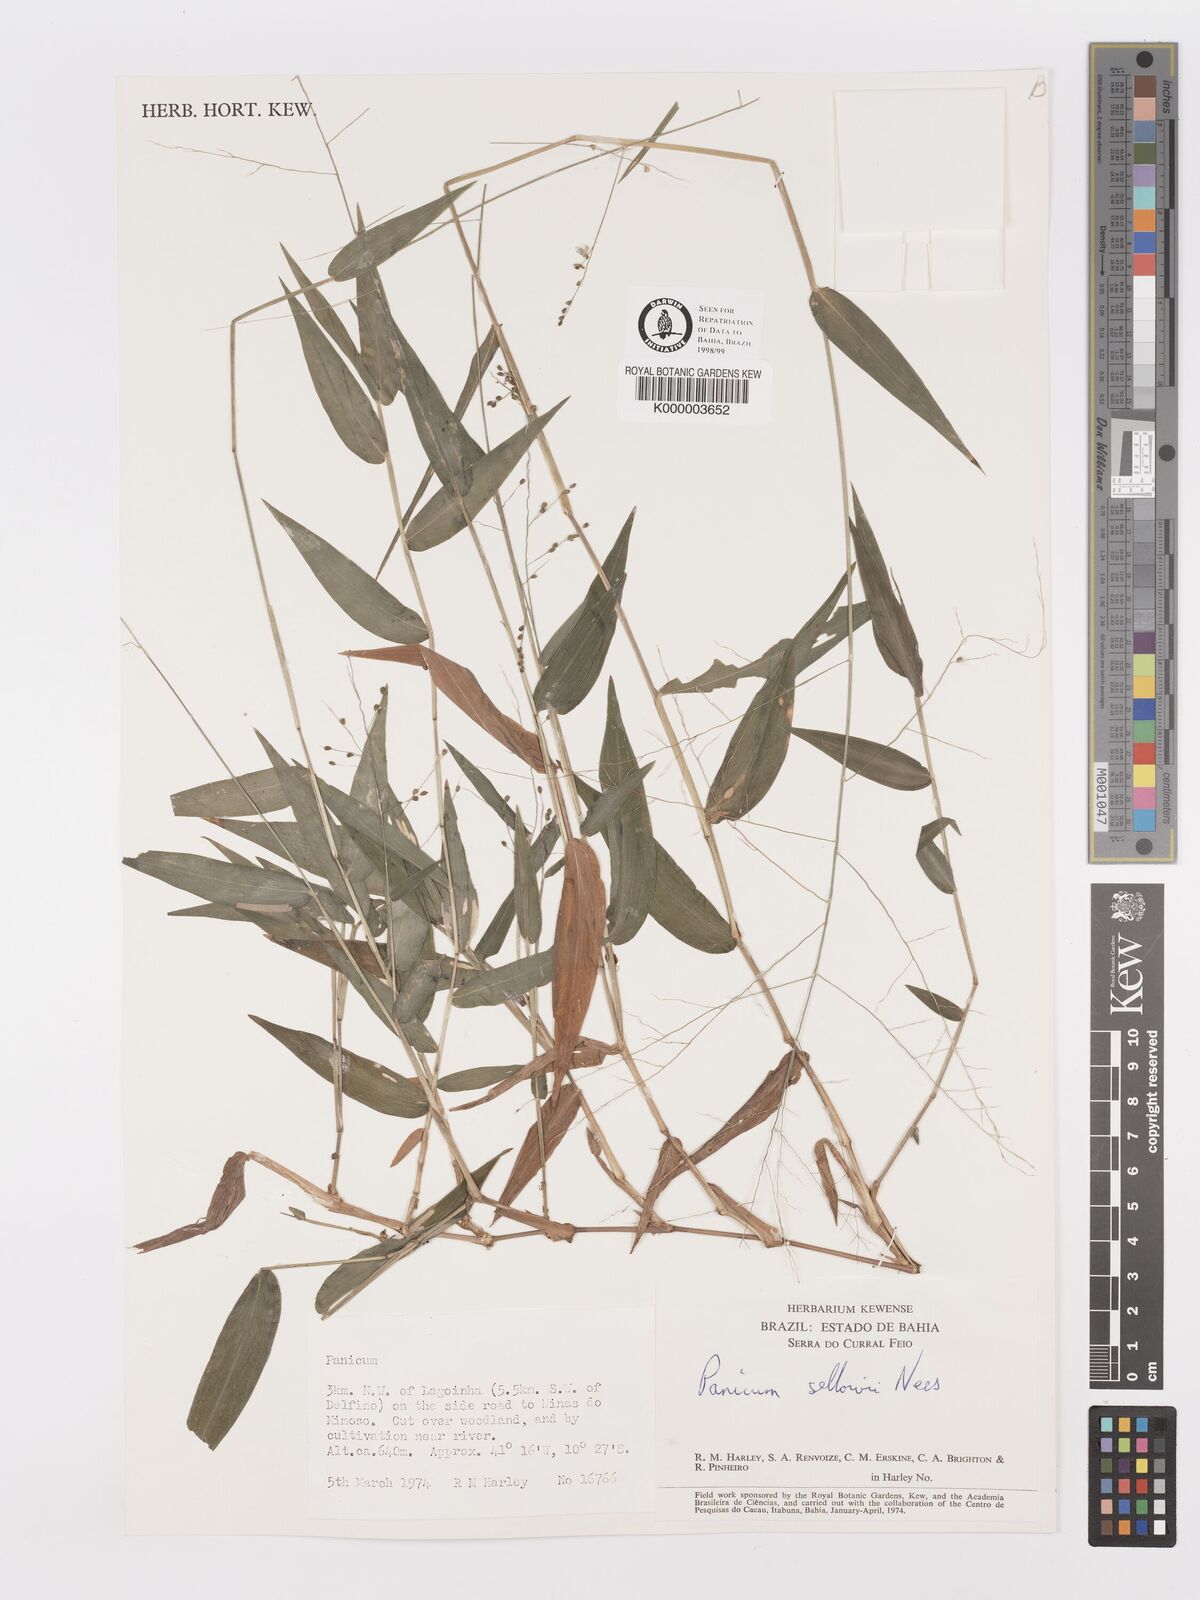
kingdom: Plantae
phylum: Tracheophyta
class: Liliopsida
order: Poales
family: Poaceae
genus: Panicum
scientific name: Panicum sellowii
